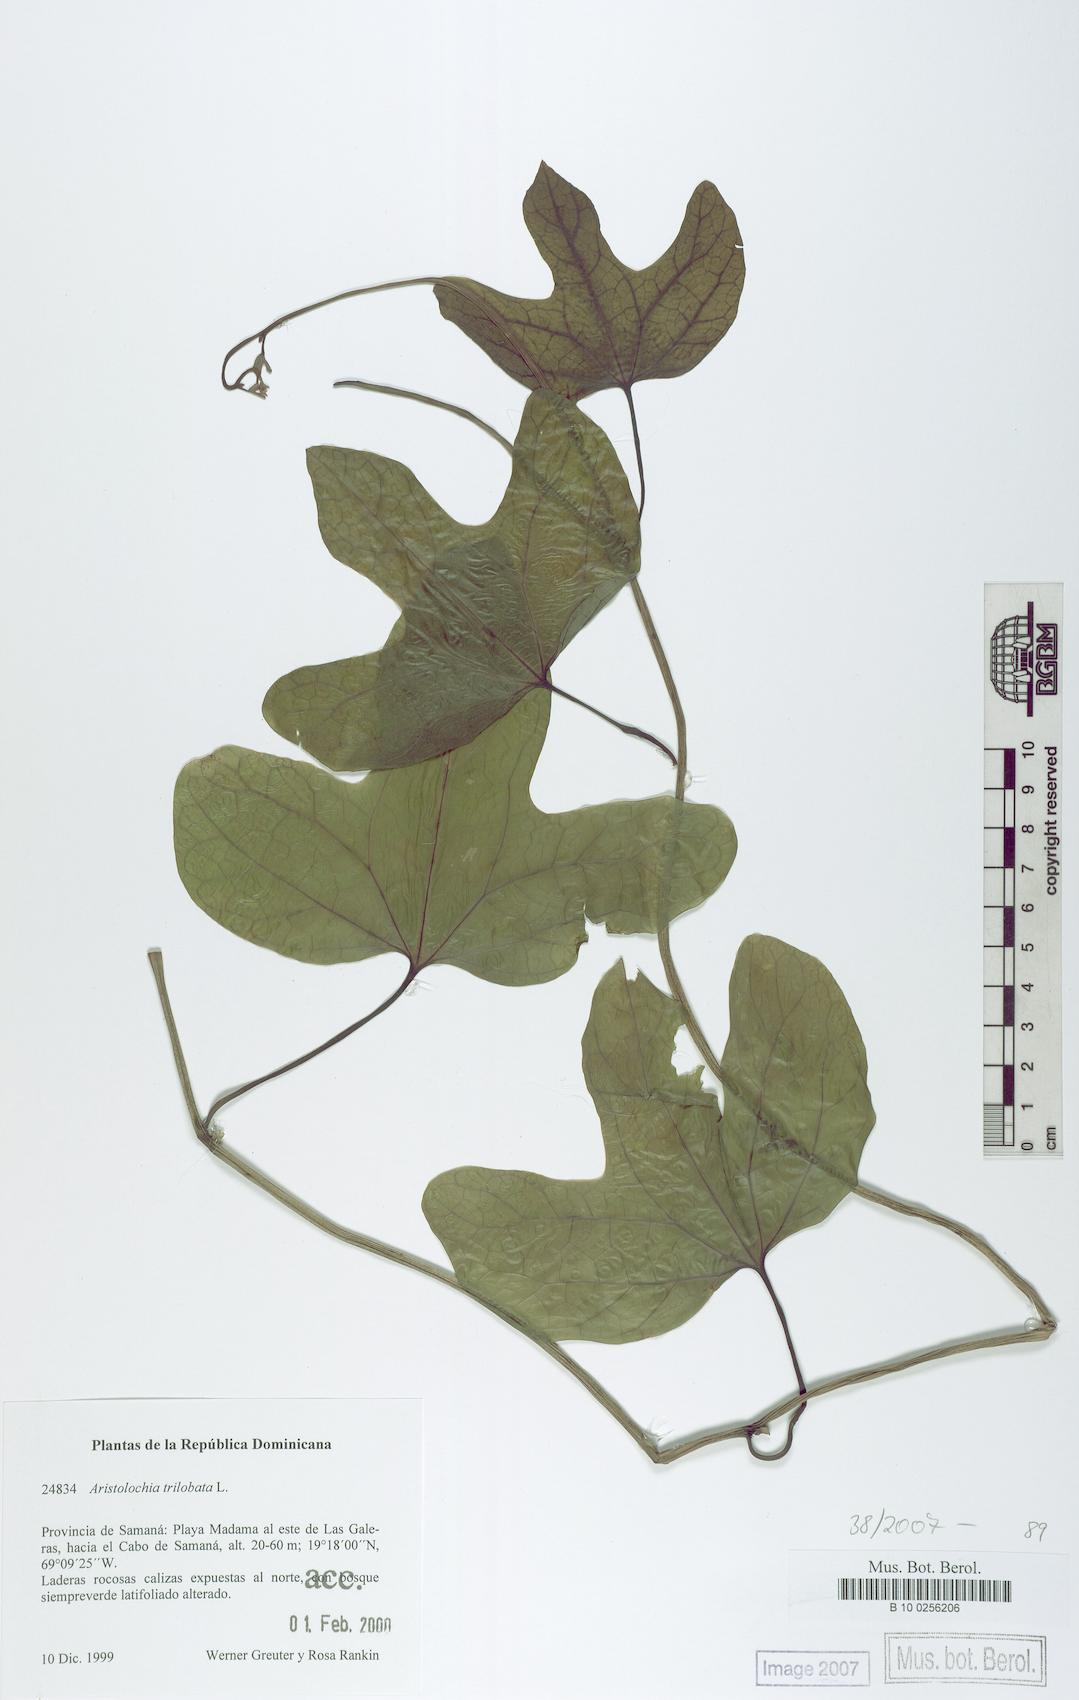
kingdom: Plantae
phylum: Tracheophyta
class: Magnoliopsida
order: Piperales
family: Aristolochiaceae
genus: Aristolochia
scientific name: Aristolochia trilobata
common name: Dutchman's pipe
